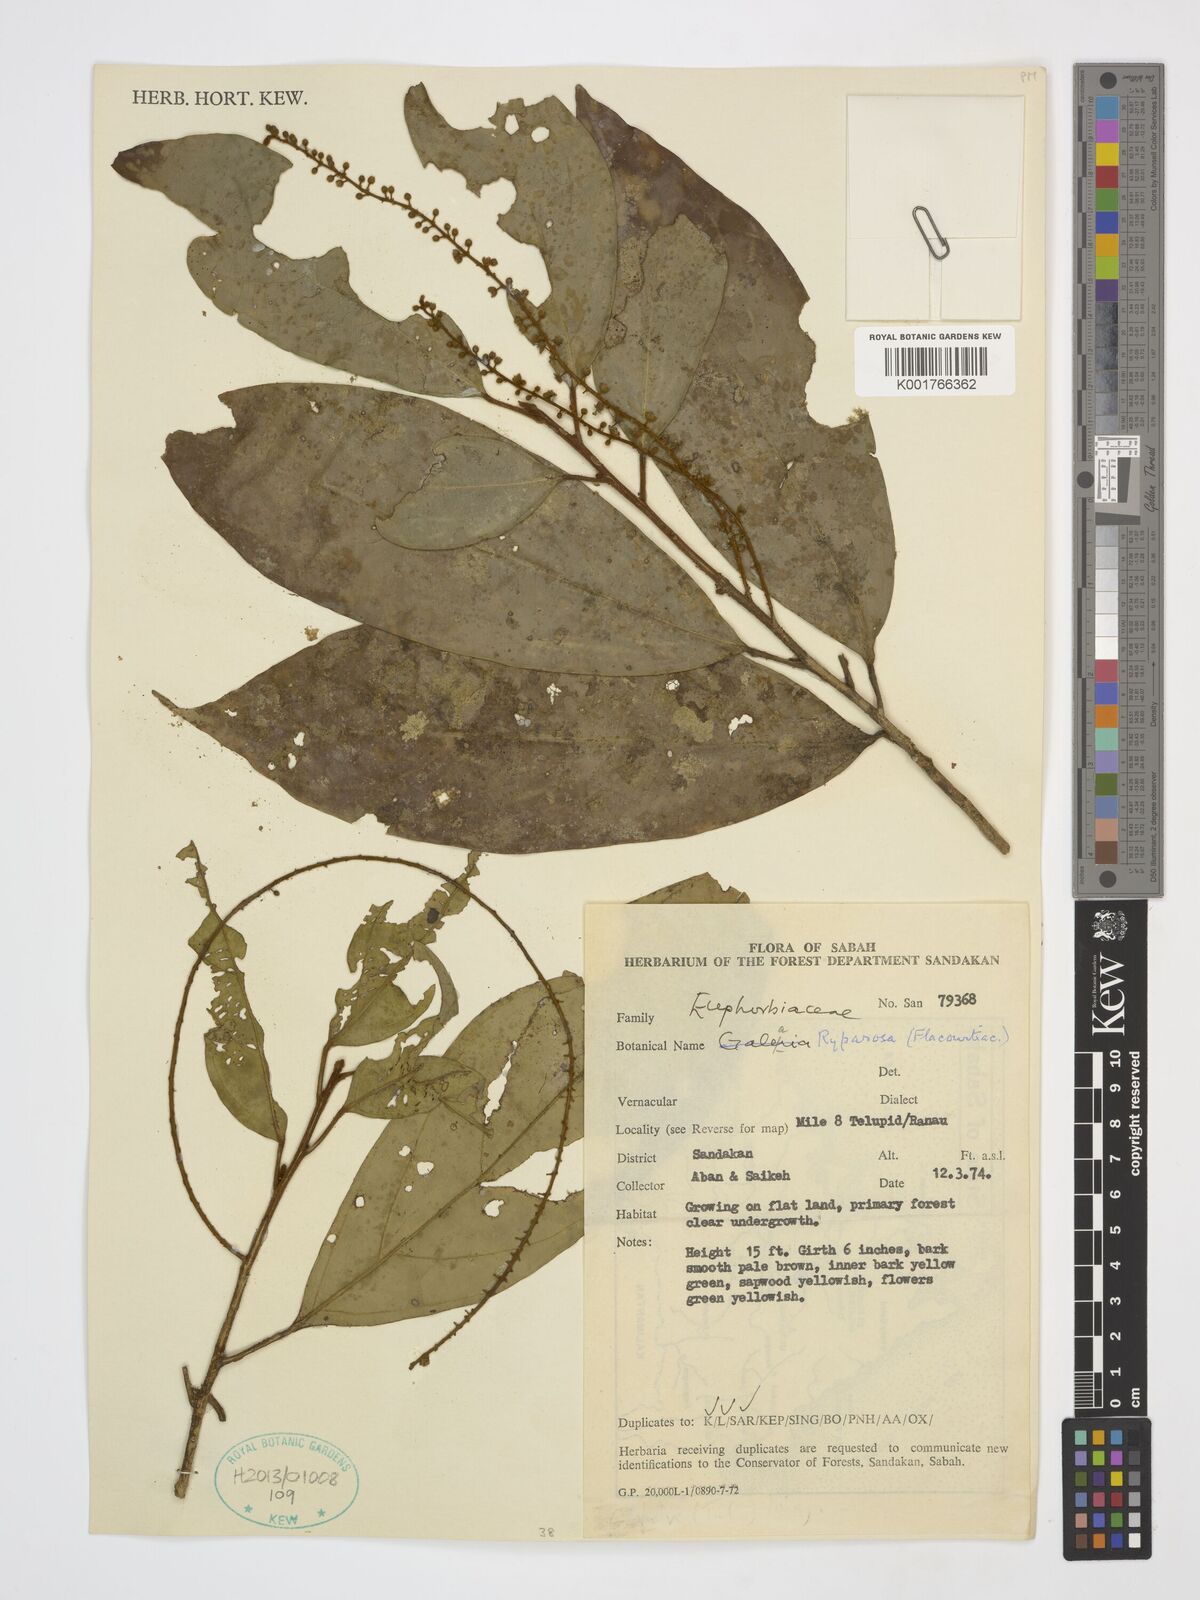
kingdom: Plantae
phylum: Tracheophyta
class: Magnoliopsida
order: Malpighiales
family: Achariaceae
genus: Ryparosa
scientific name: Ryparosa
